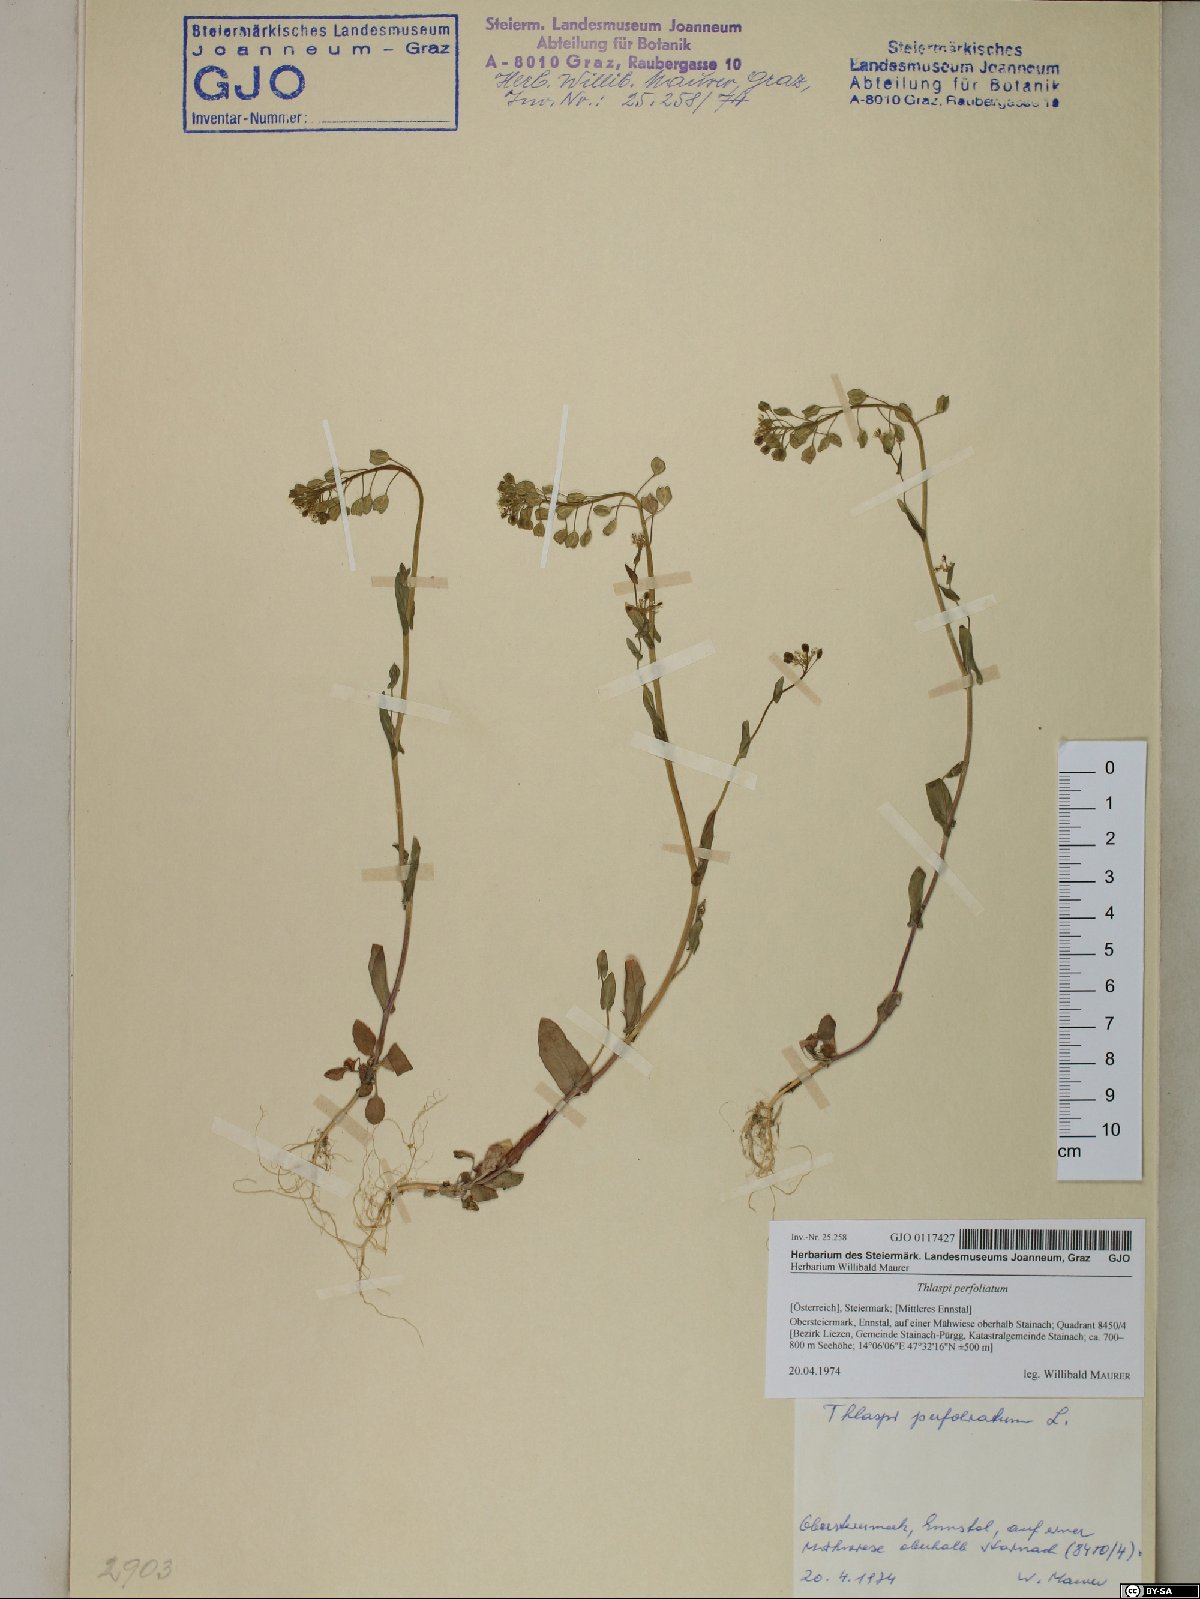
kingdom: Plantae
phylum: Tracheophyta
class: Magnoliopsida
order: Brassicales
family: Brassicaceae
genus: Noccaea
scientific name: Noccaea perfoliata
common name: Perfoliate pennycress
